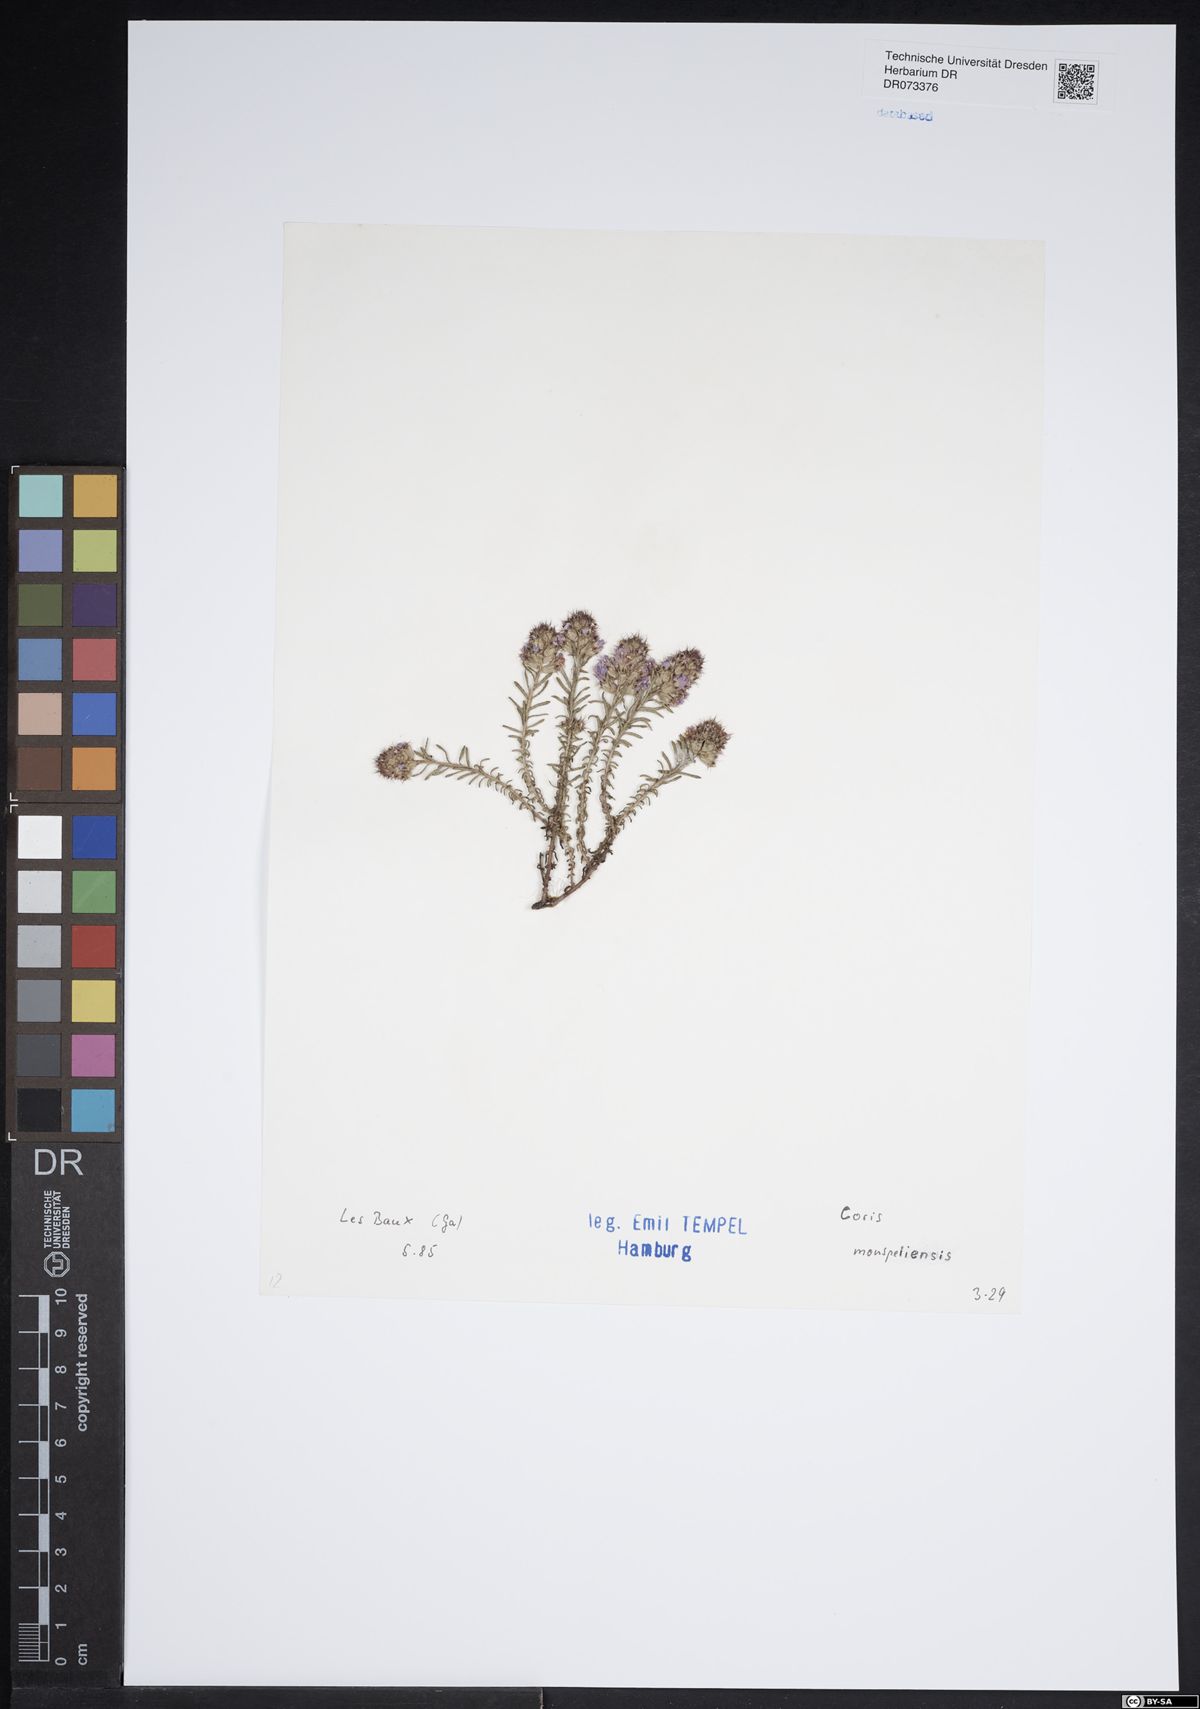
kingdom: Plantae
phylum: Tracheophyta
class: Magnoliopsida
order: Ericales
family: Primulaceae
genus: Coris
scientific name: Coris monspeliensis
